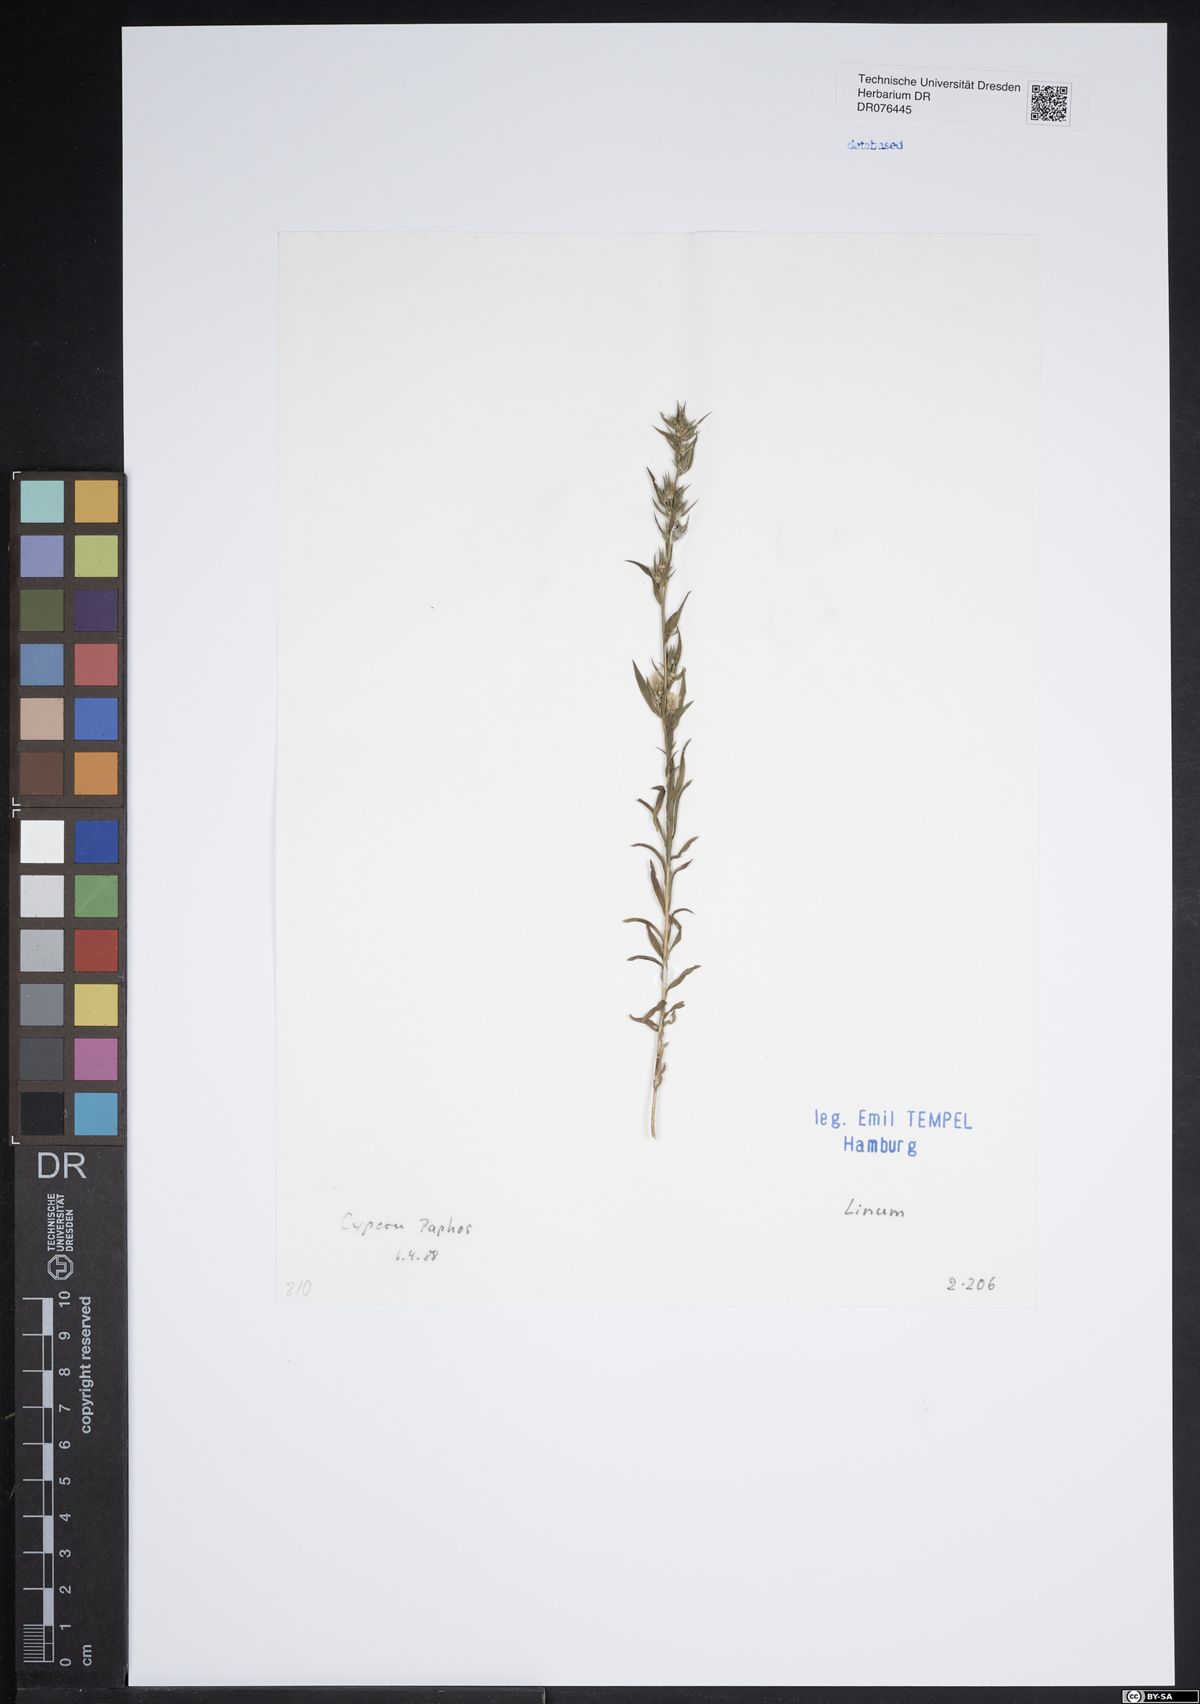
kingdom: Plantae
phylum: Tracheophyta
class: Magnoliopsida
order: Malpighiales
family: Linaceae
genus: Linum
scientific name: Linum
